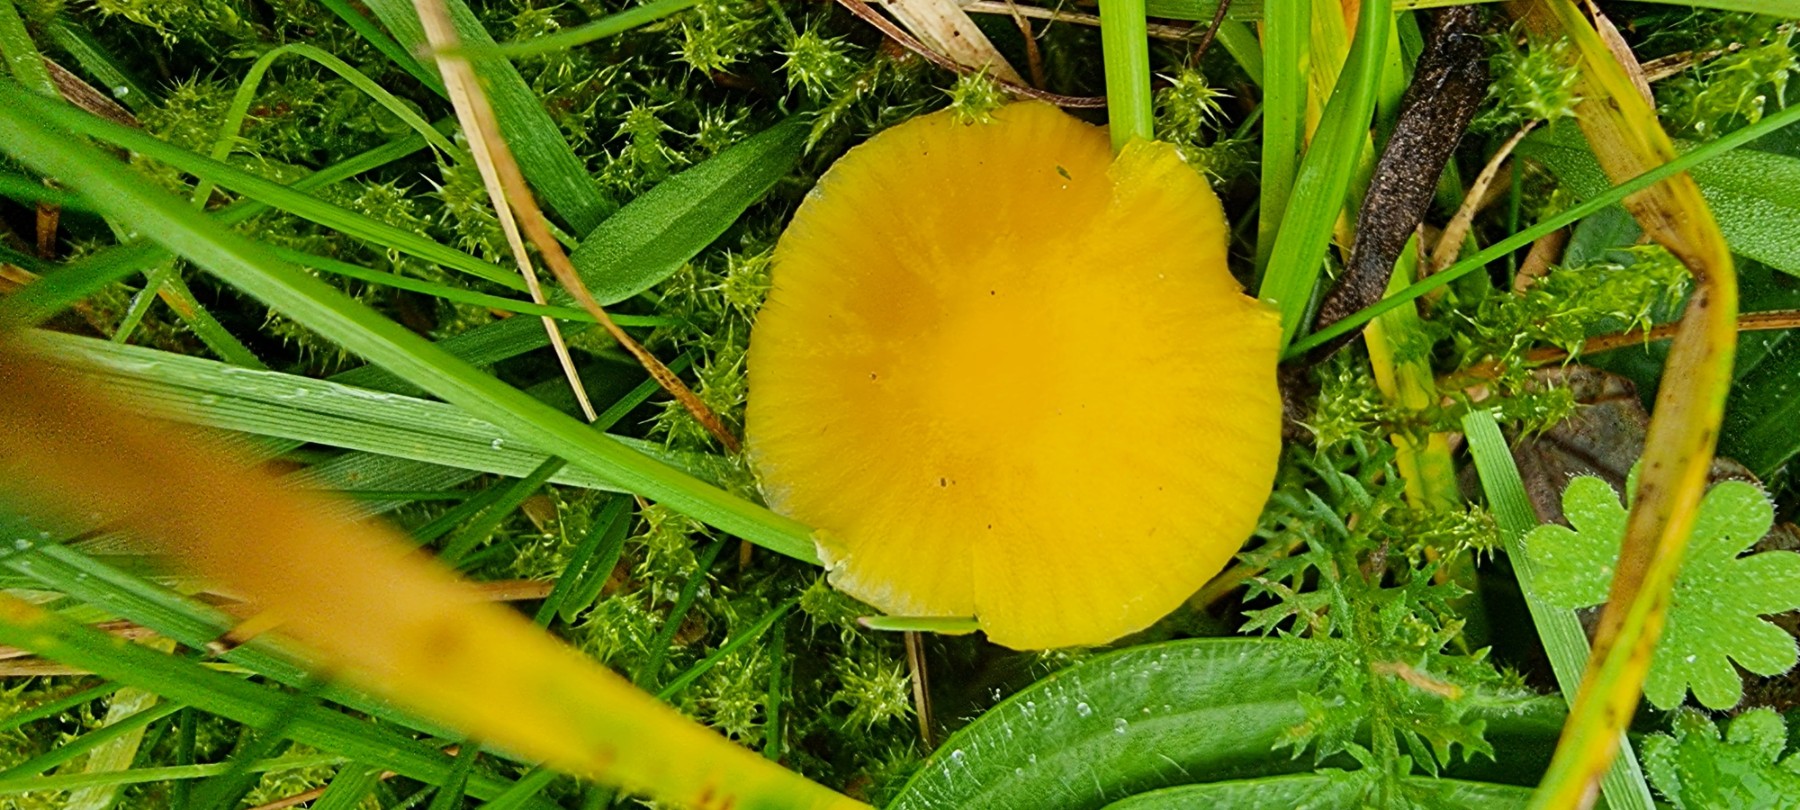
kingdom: Fungi
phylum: Basidiomycota
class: Agaricomycetes
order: Agaricales
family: Hygrophoraceae
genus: Hygrocybe
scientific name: Hygrocybe ceracea
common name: voksgul vokshat
